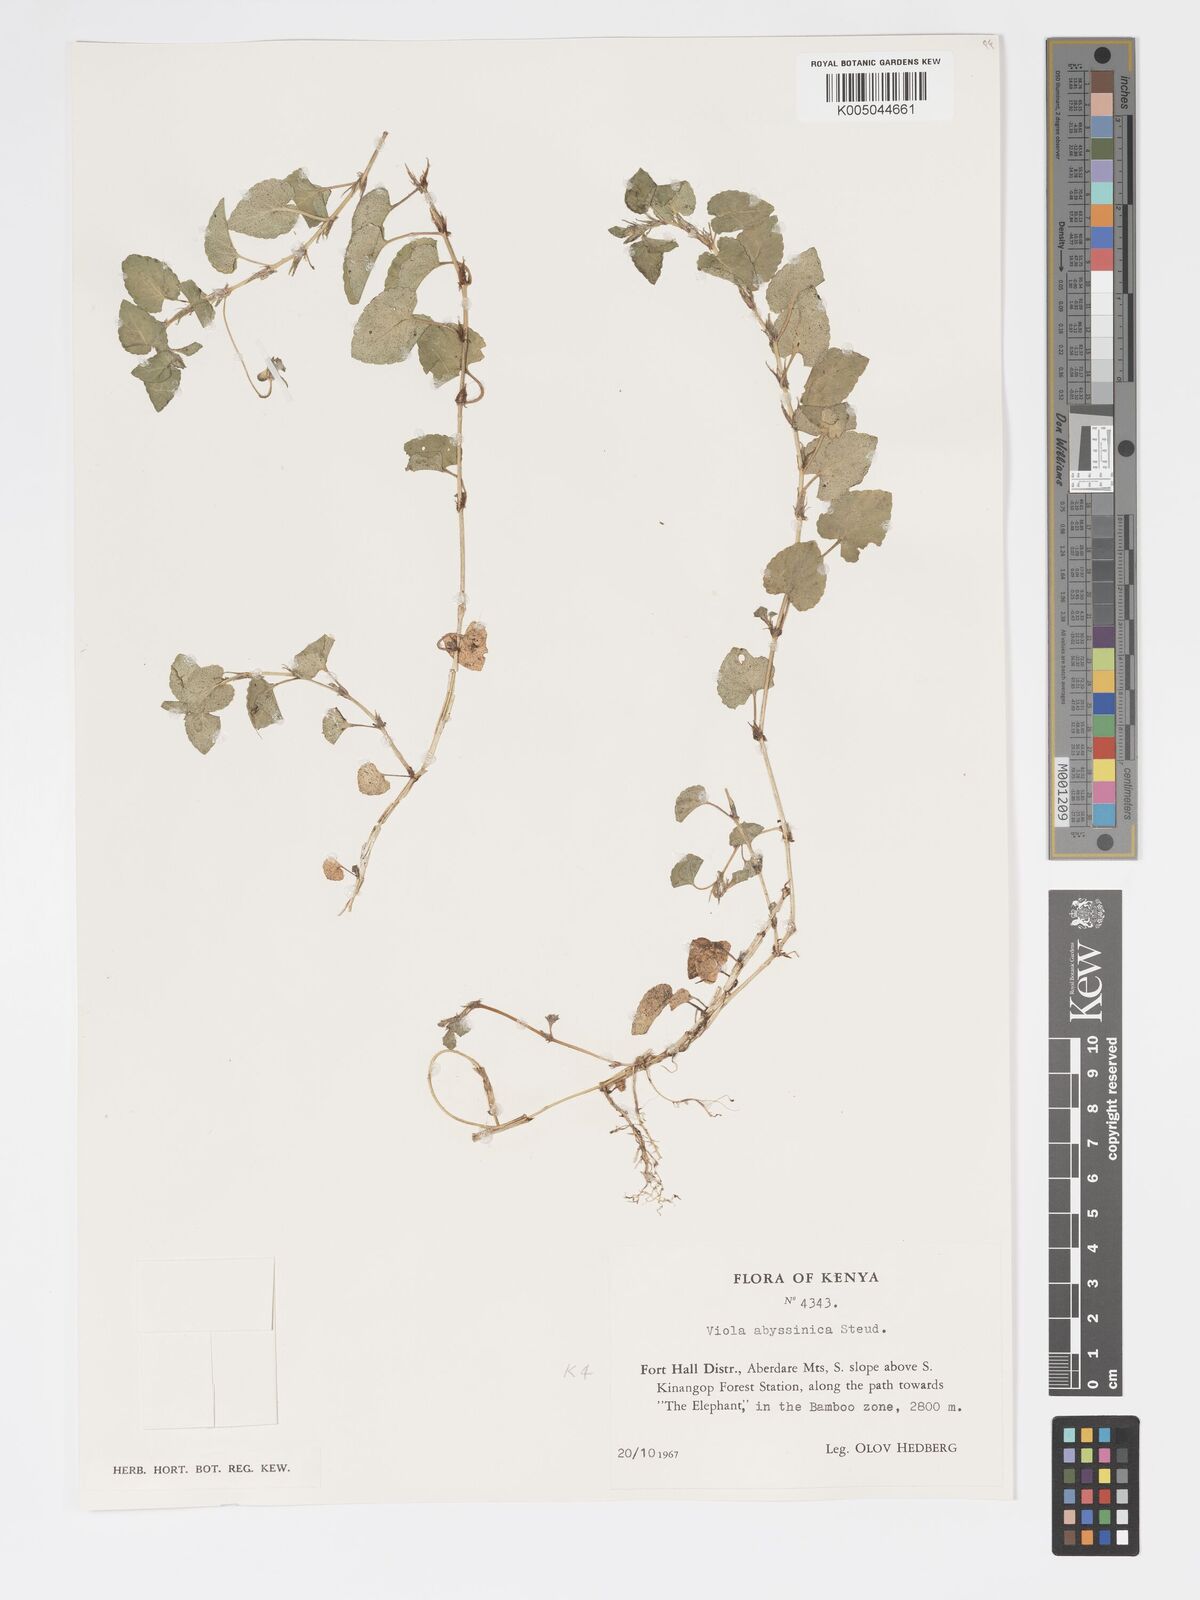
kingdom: Plantae
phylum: Tracheophyta
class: Magnoliopsida
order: Malpighiales
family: Violaceae
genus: Viola
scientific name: Viola abyssinica
